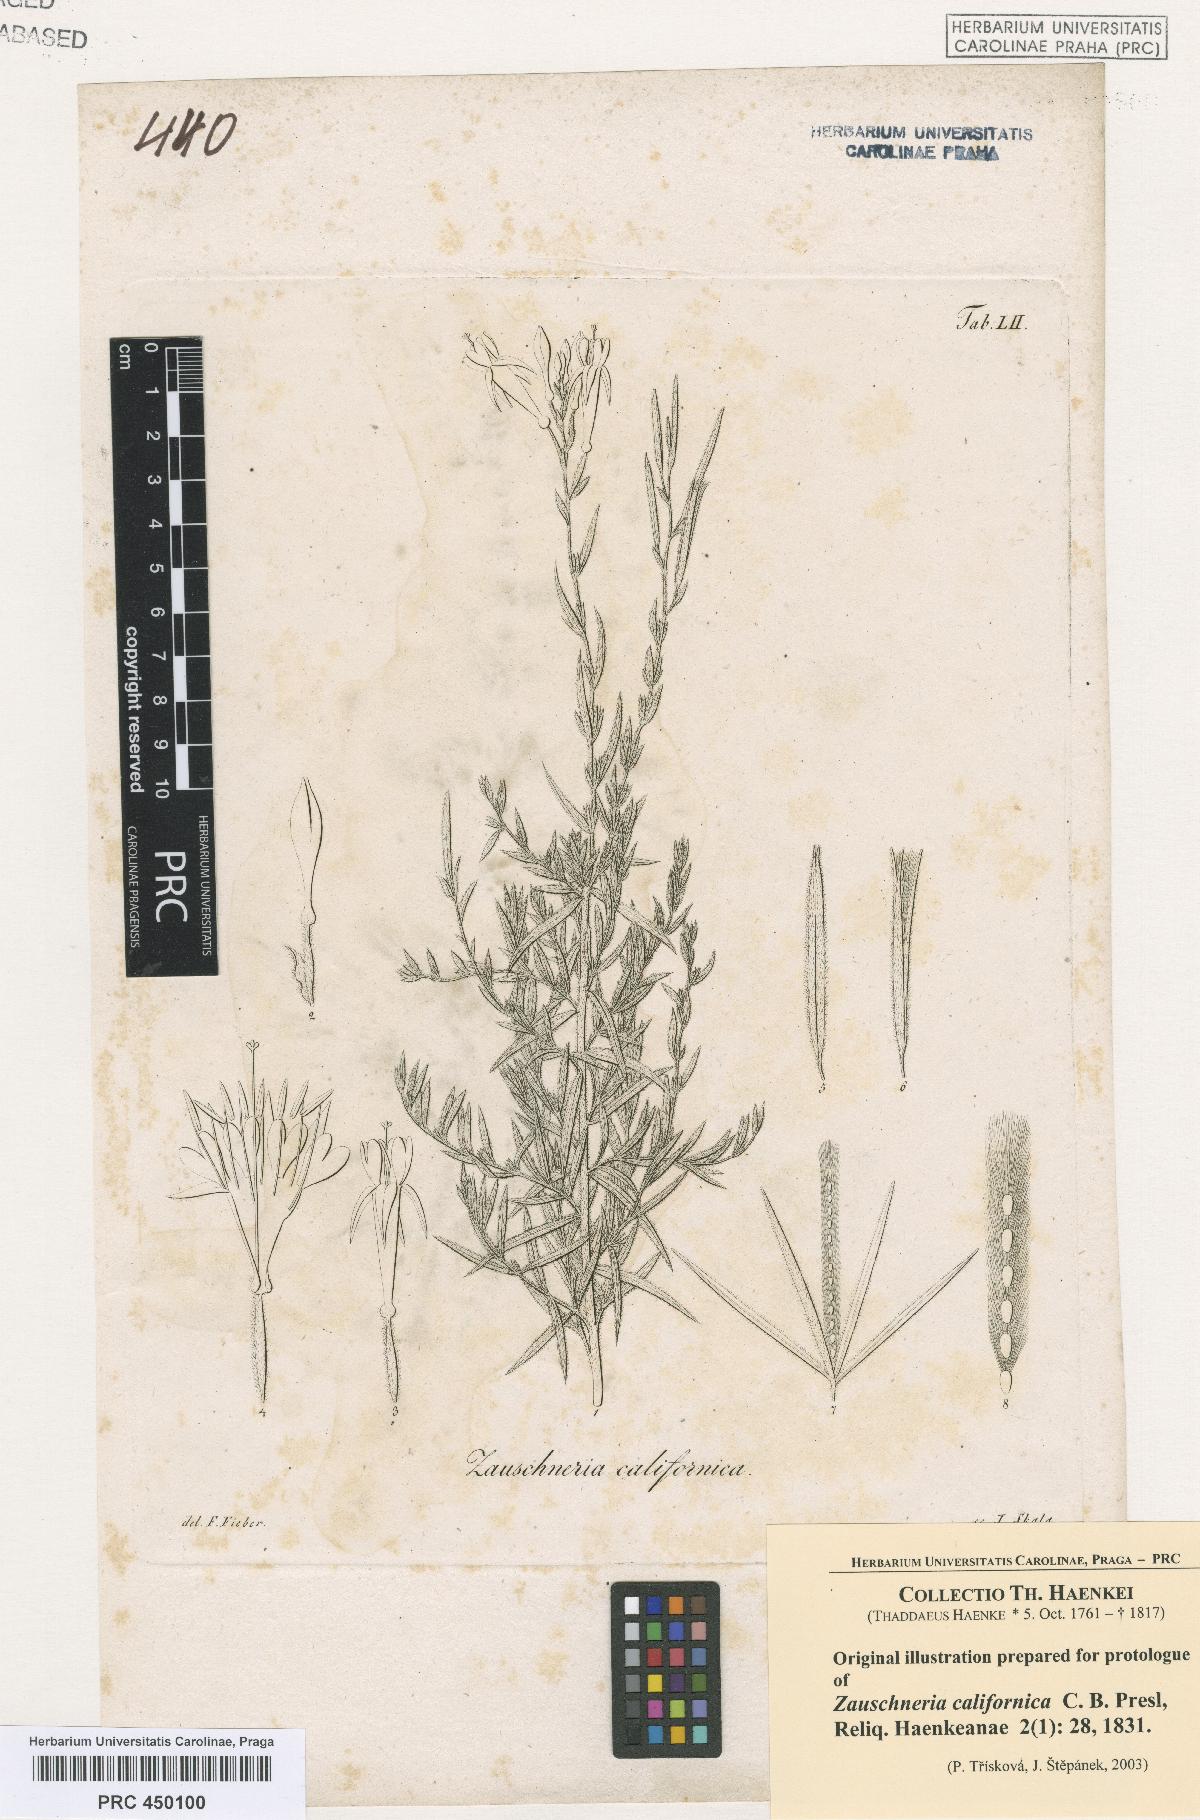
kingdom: Plantae
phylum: Tracheophyta
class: Magnoliopsida
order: Myrtales
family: Onagraceae
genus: Epilobium
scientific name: Epilobium canum
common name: California-fuchsia
